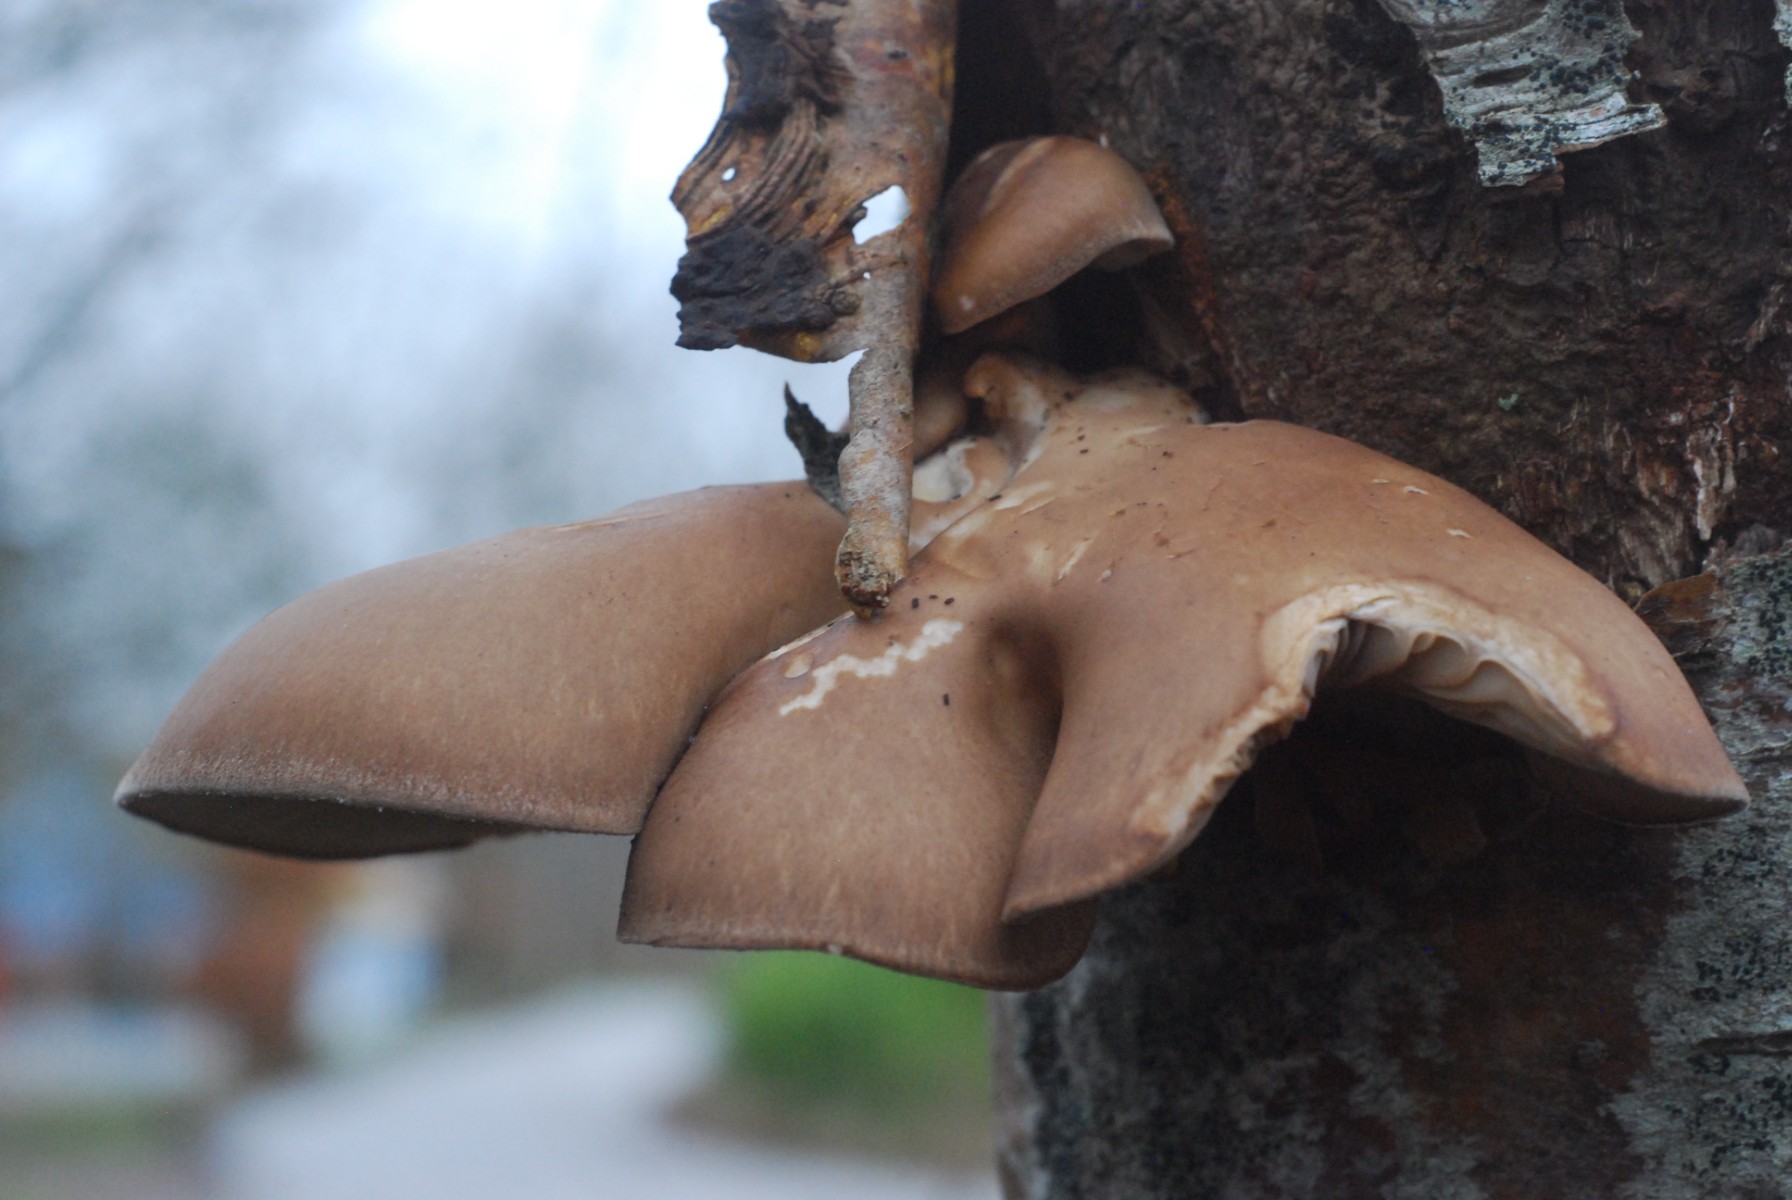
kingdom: Fungi
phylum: Basidiomycota
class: Agaricomycetes
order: Agaricales
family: Pleurotaceae
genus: Pleurotus
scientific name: Pleurotus ostreatus
